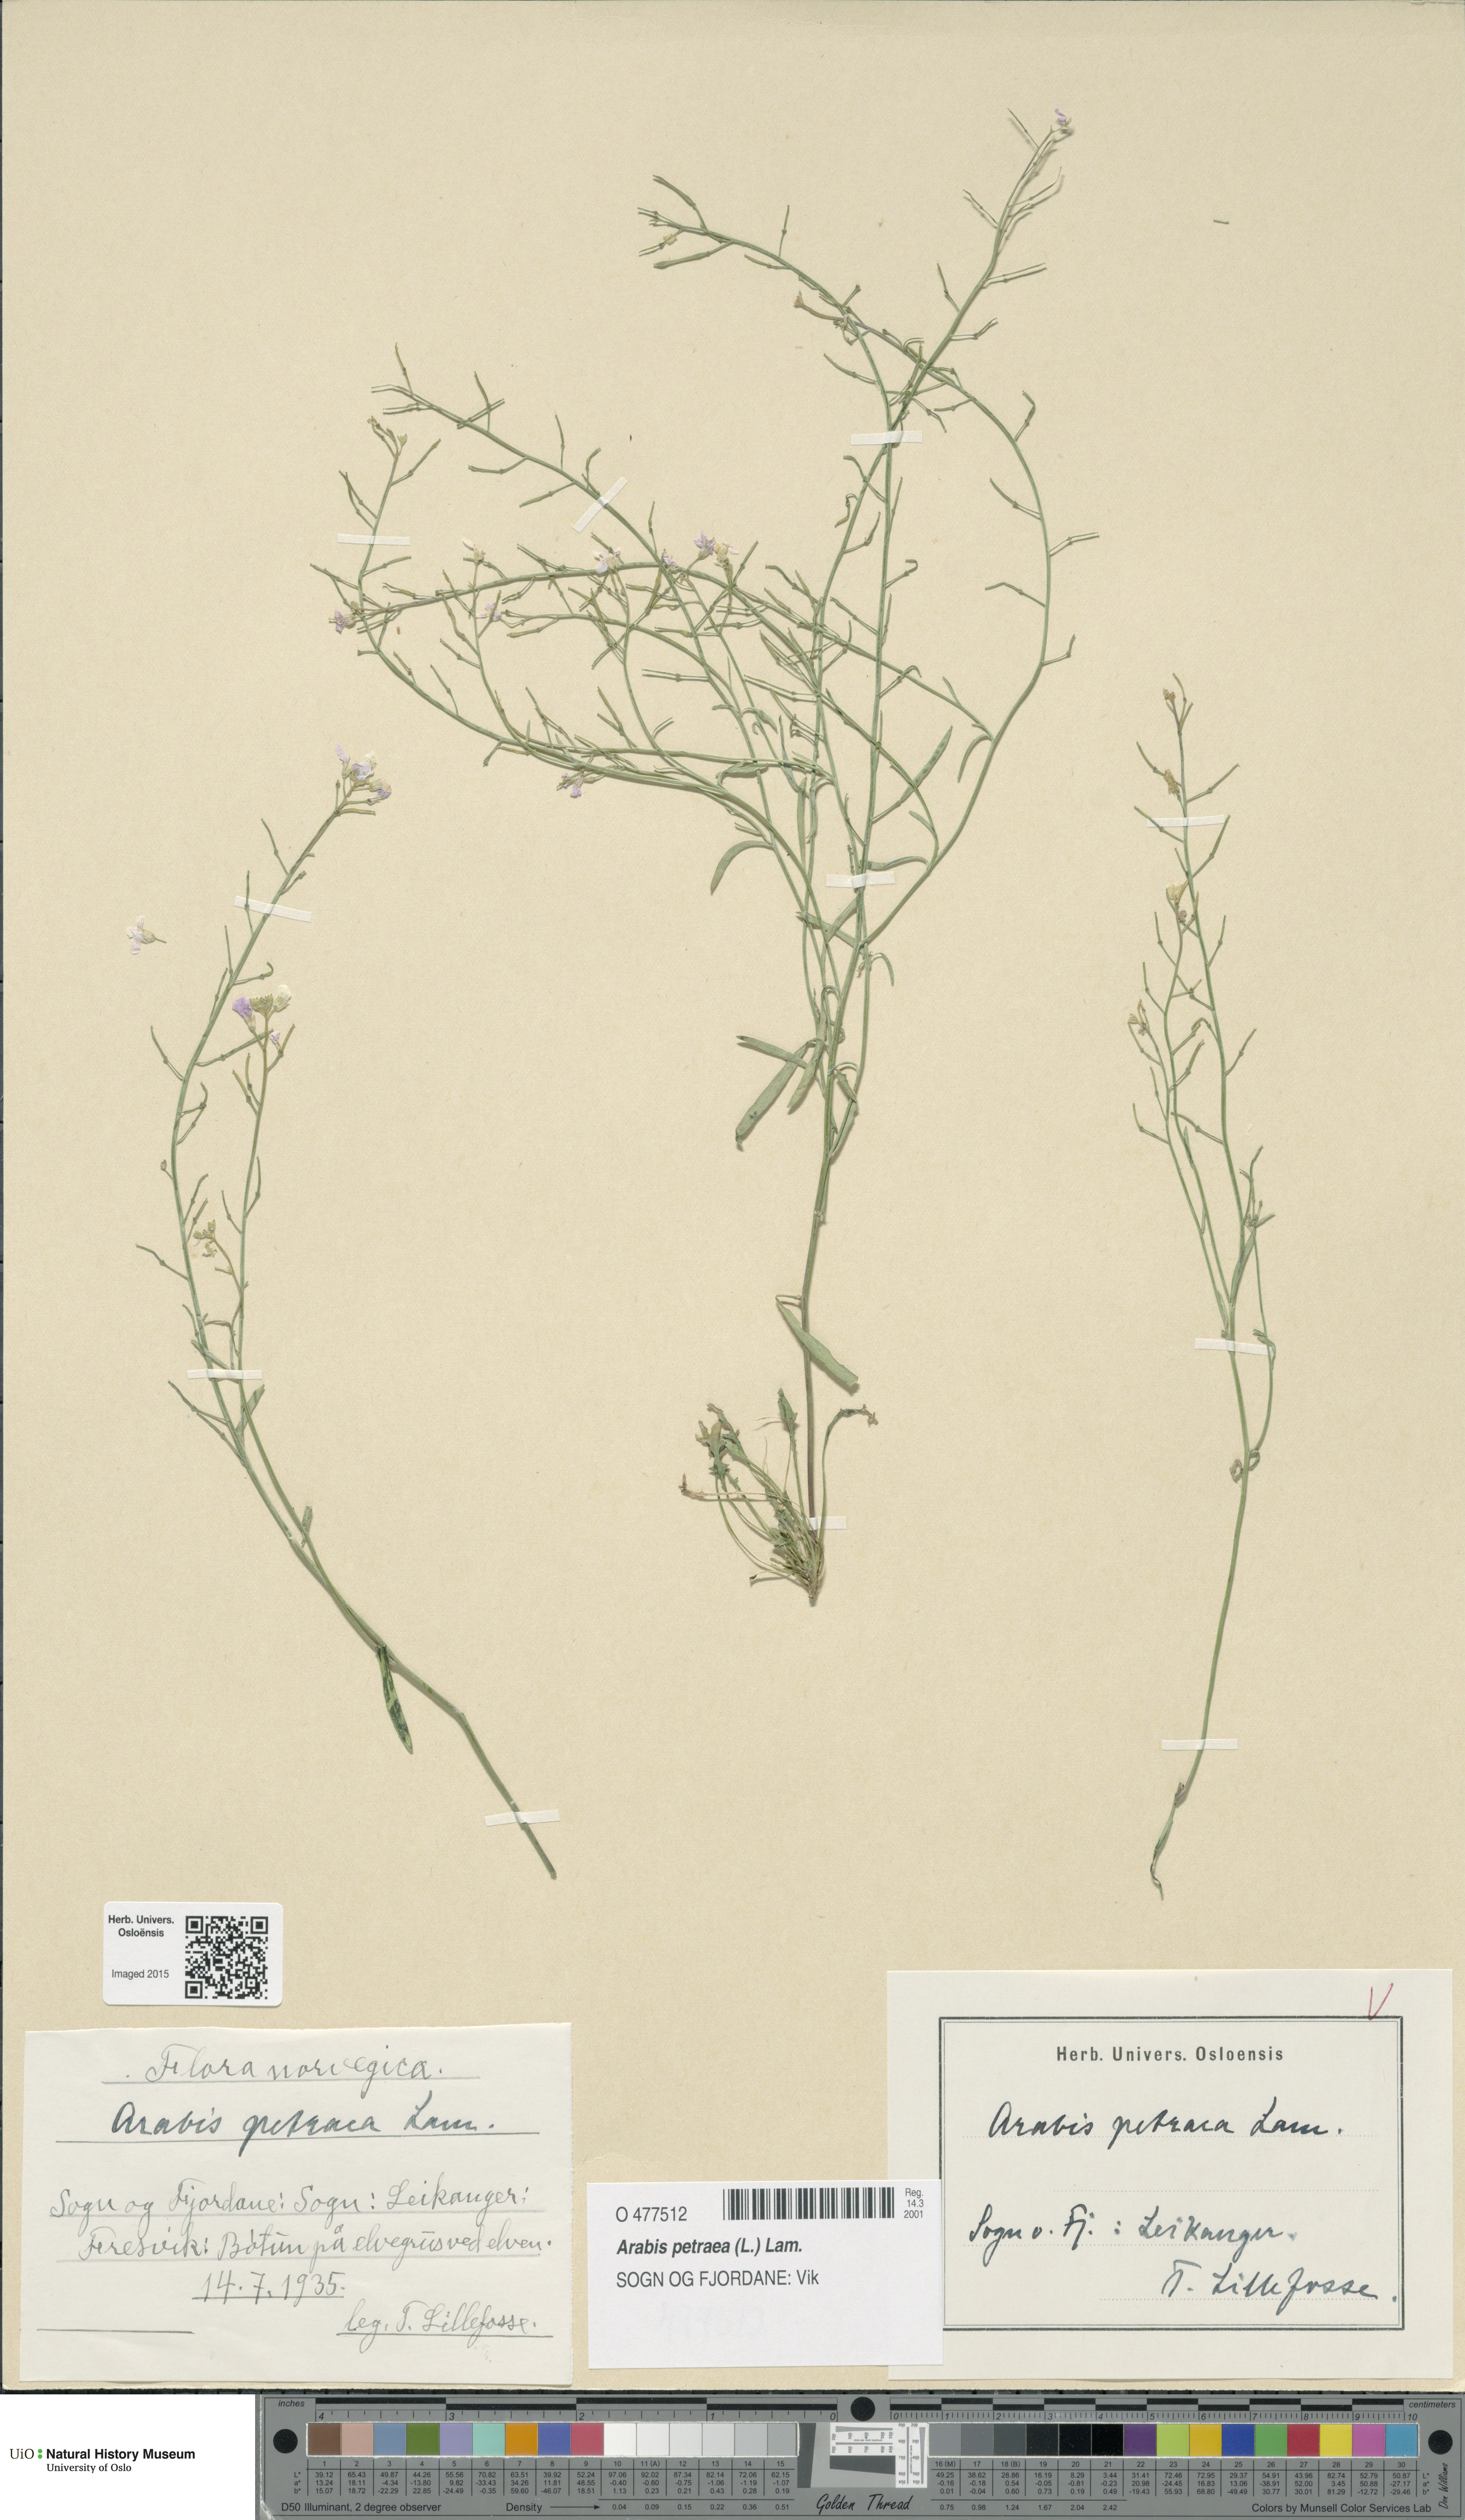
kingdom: Plantae
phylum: Tracheophyta
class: Magnoliopsida
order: Brassicales
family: Brassicaceae
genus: Arabidopsis
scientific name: Arabidopsis petraea
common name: Northern rock-cress
